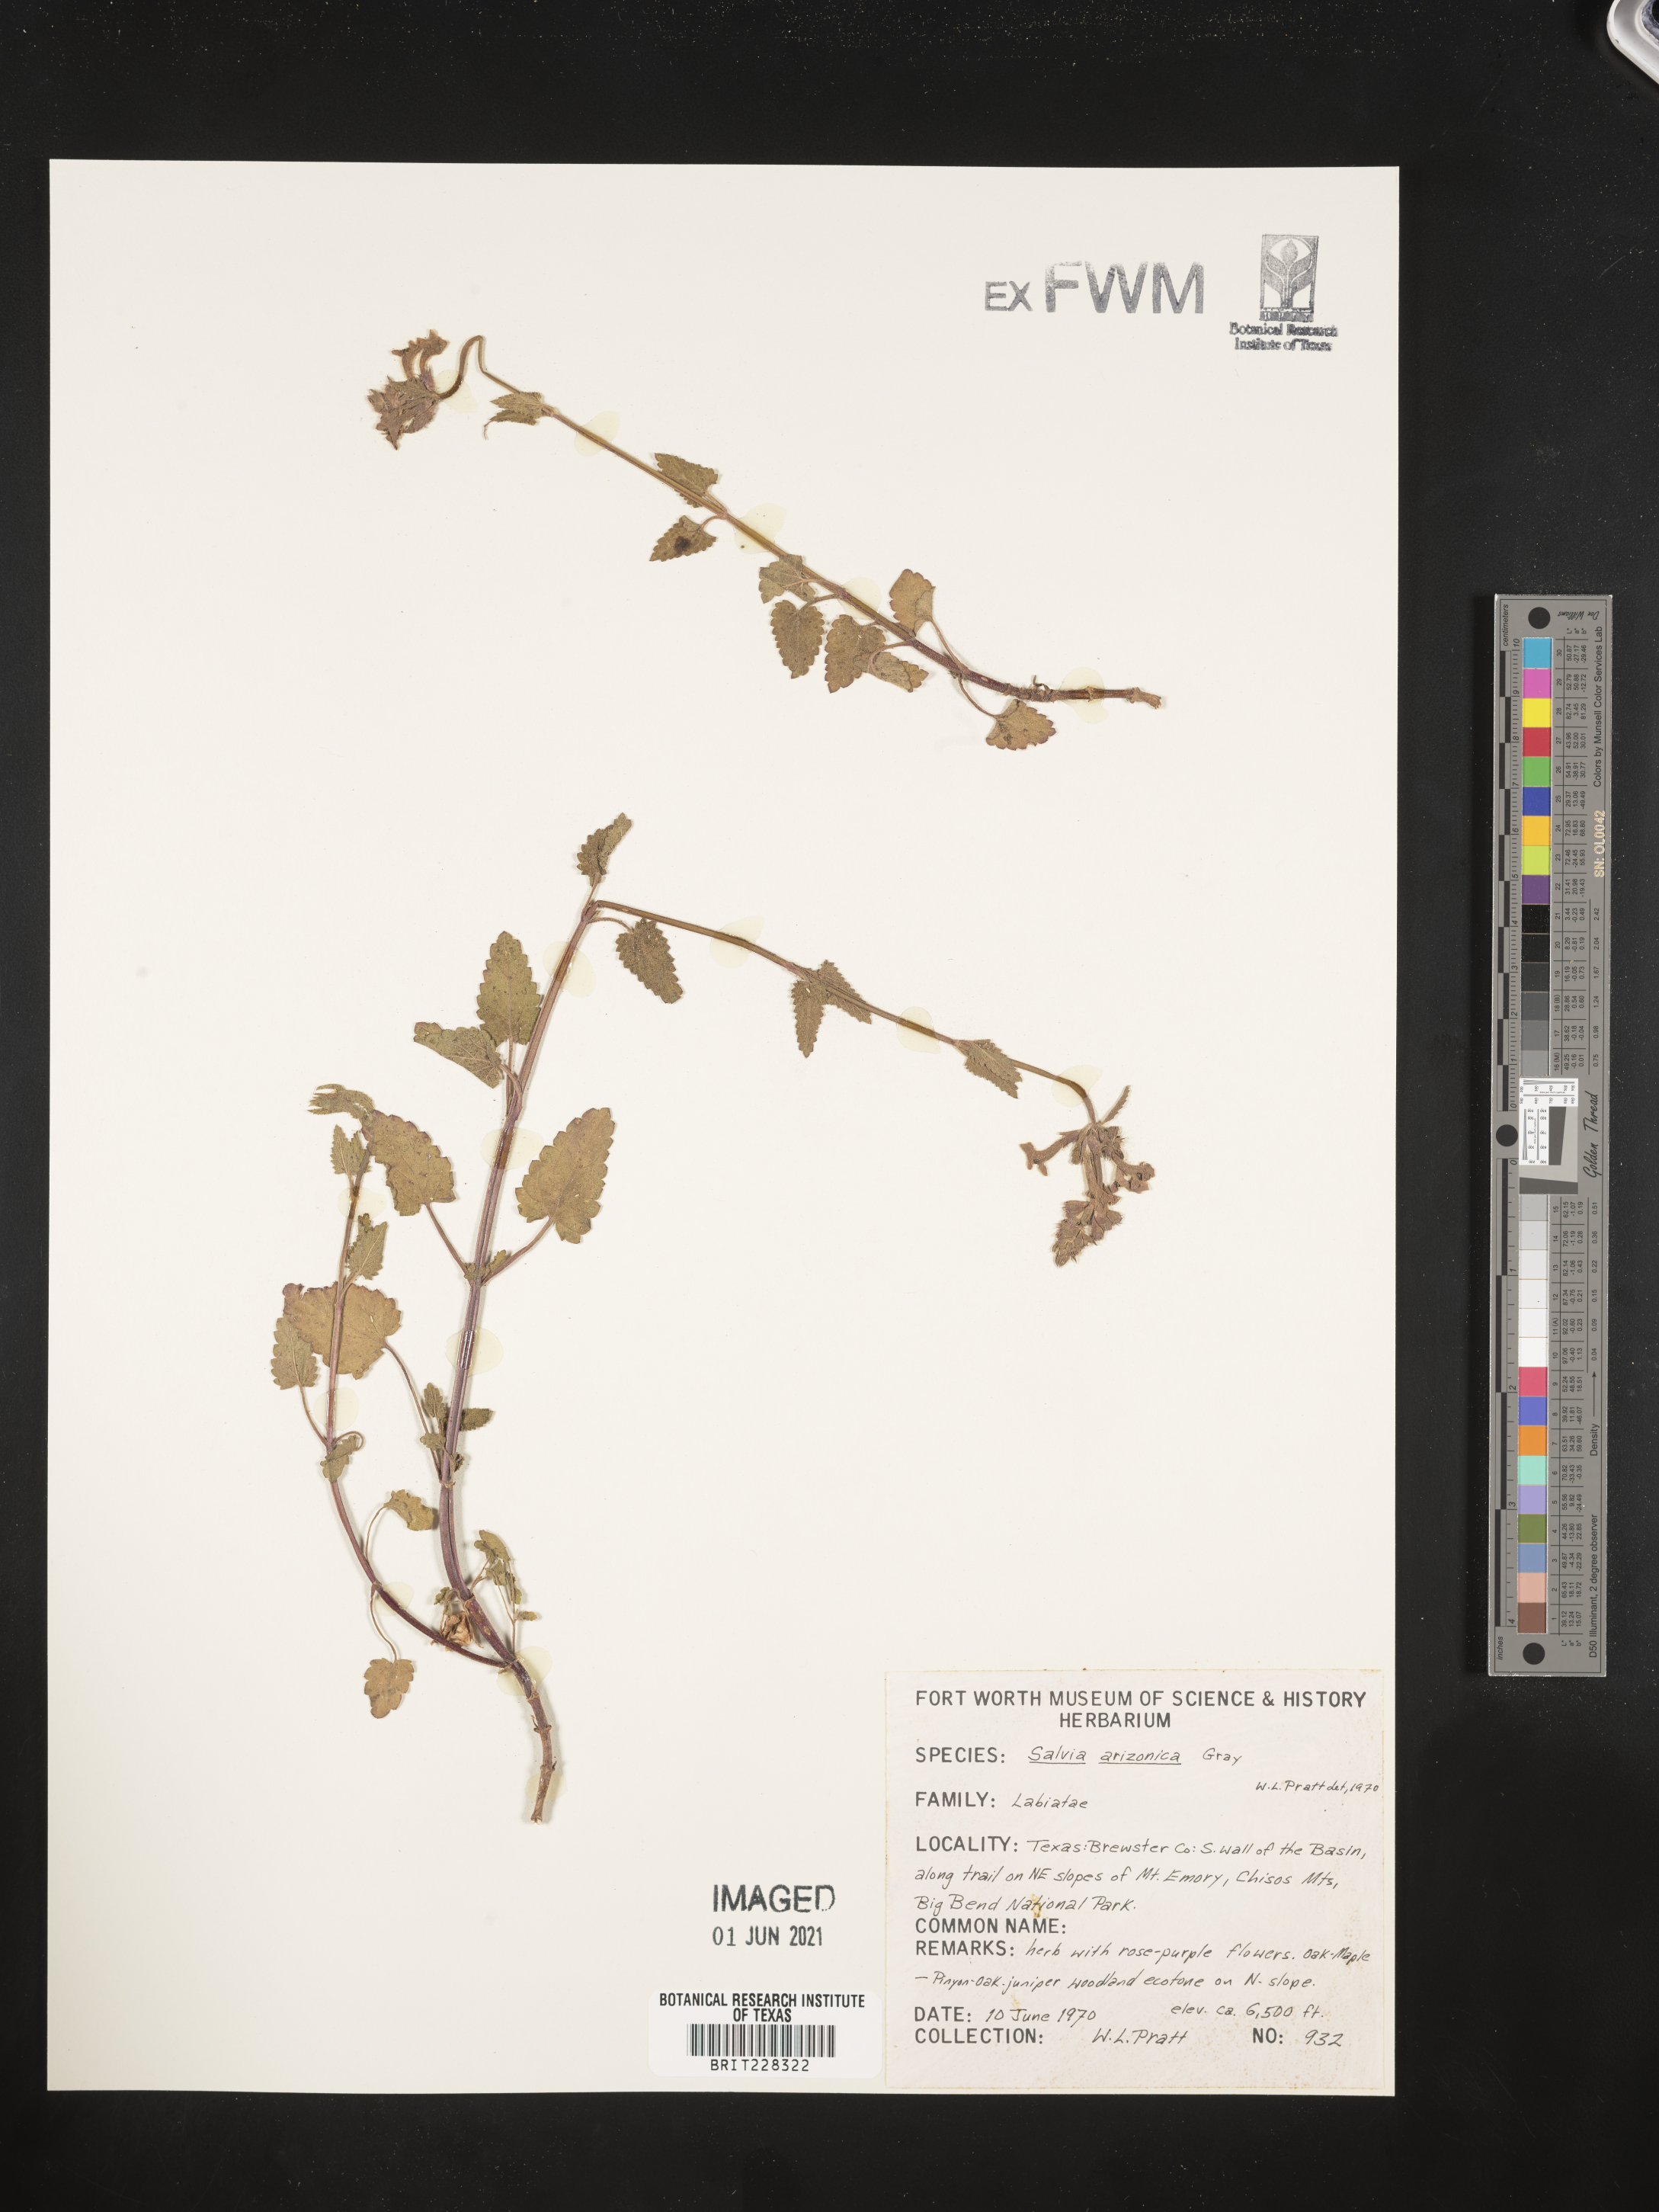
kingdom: Plantae
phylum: Tracheophyta
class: Magnoliopsida
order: Lamiales
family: Lamiaceae
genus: Salvia
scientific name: Salvia arizonica
